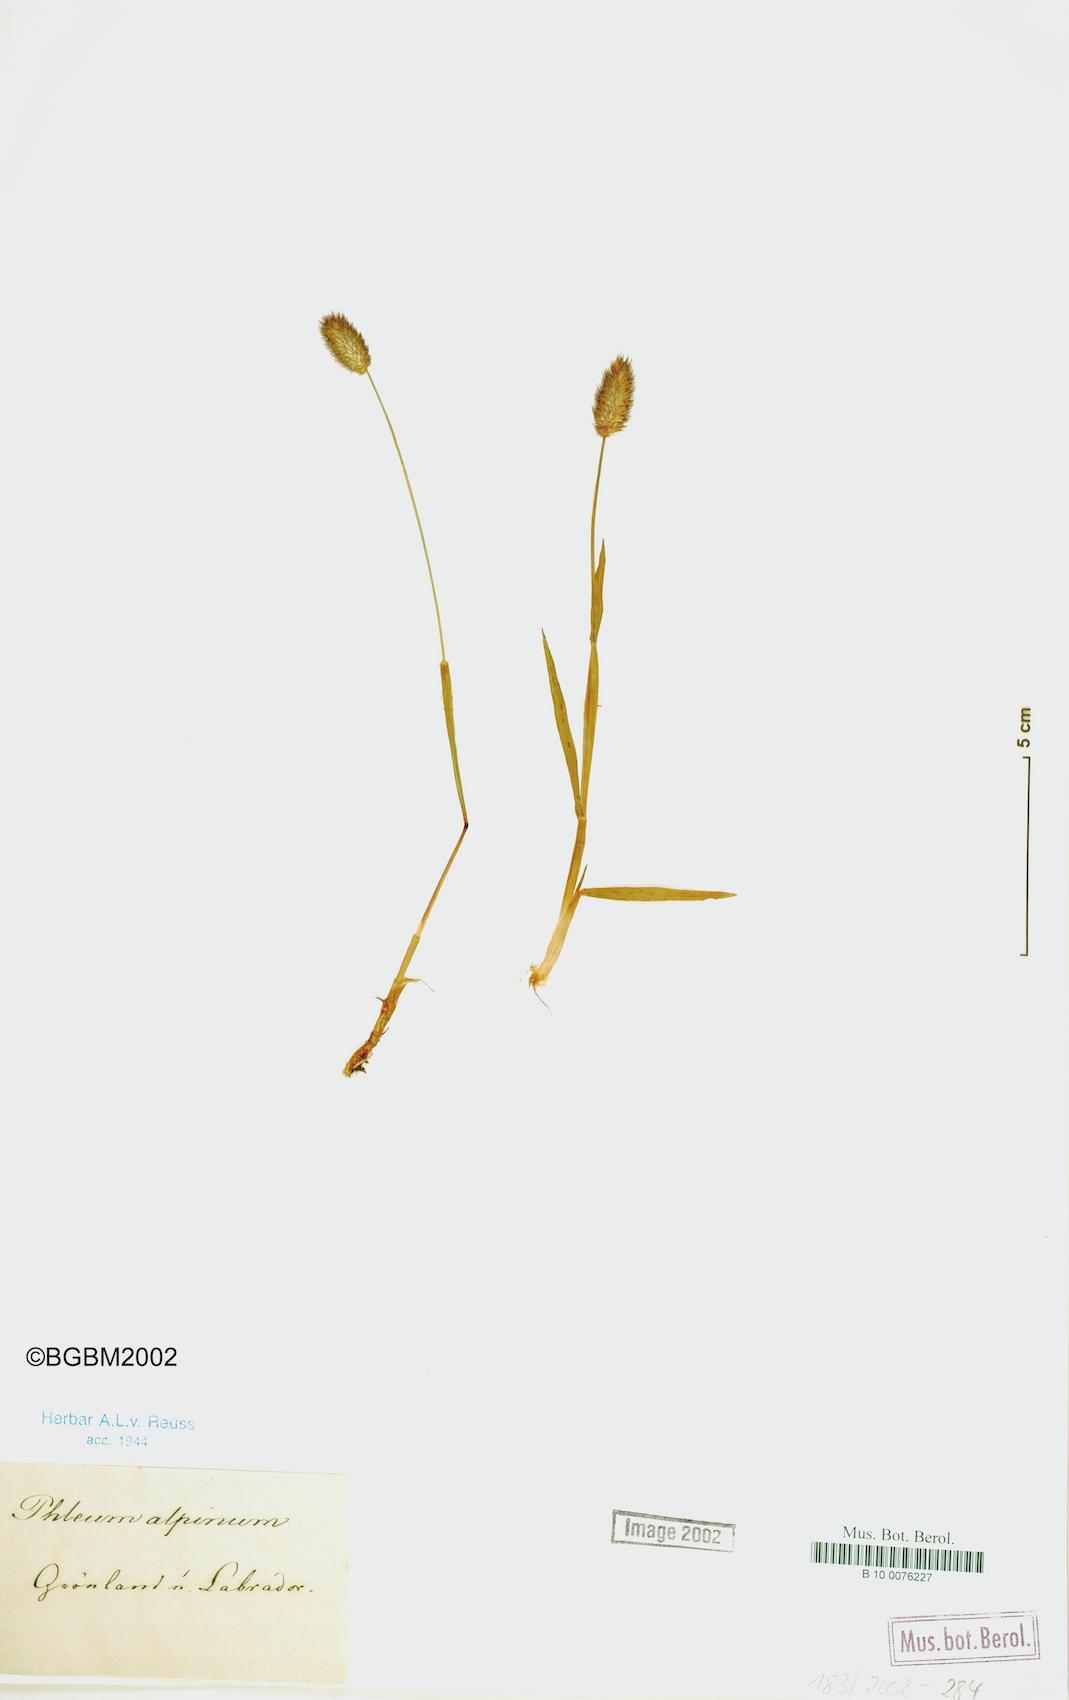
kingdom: Plantae
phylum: Tracheophyta
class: Liliopsida
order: Poales
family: Poaceae
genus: Phleum
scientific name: Phleum alpinum
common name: Alpine cat's-tail
